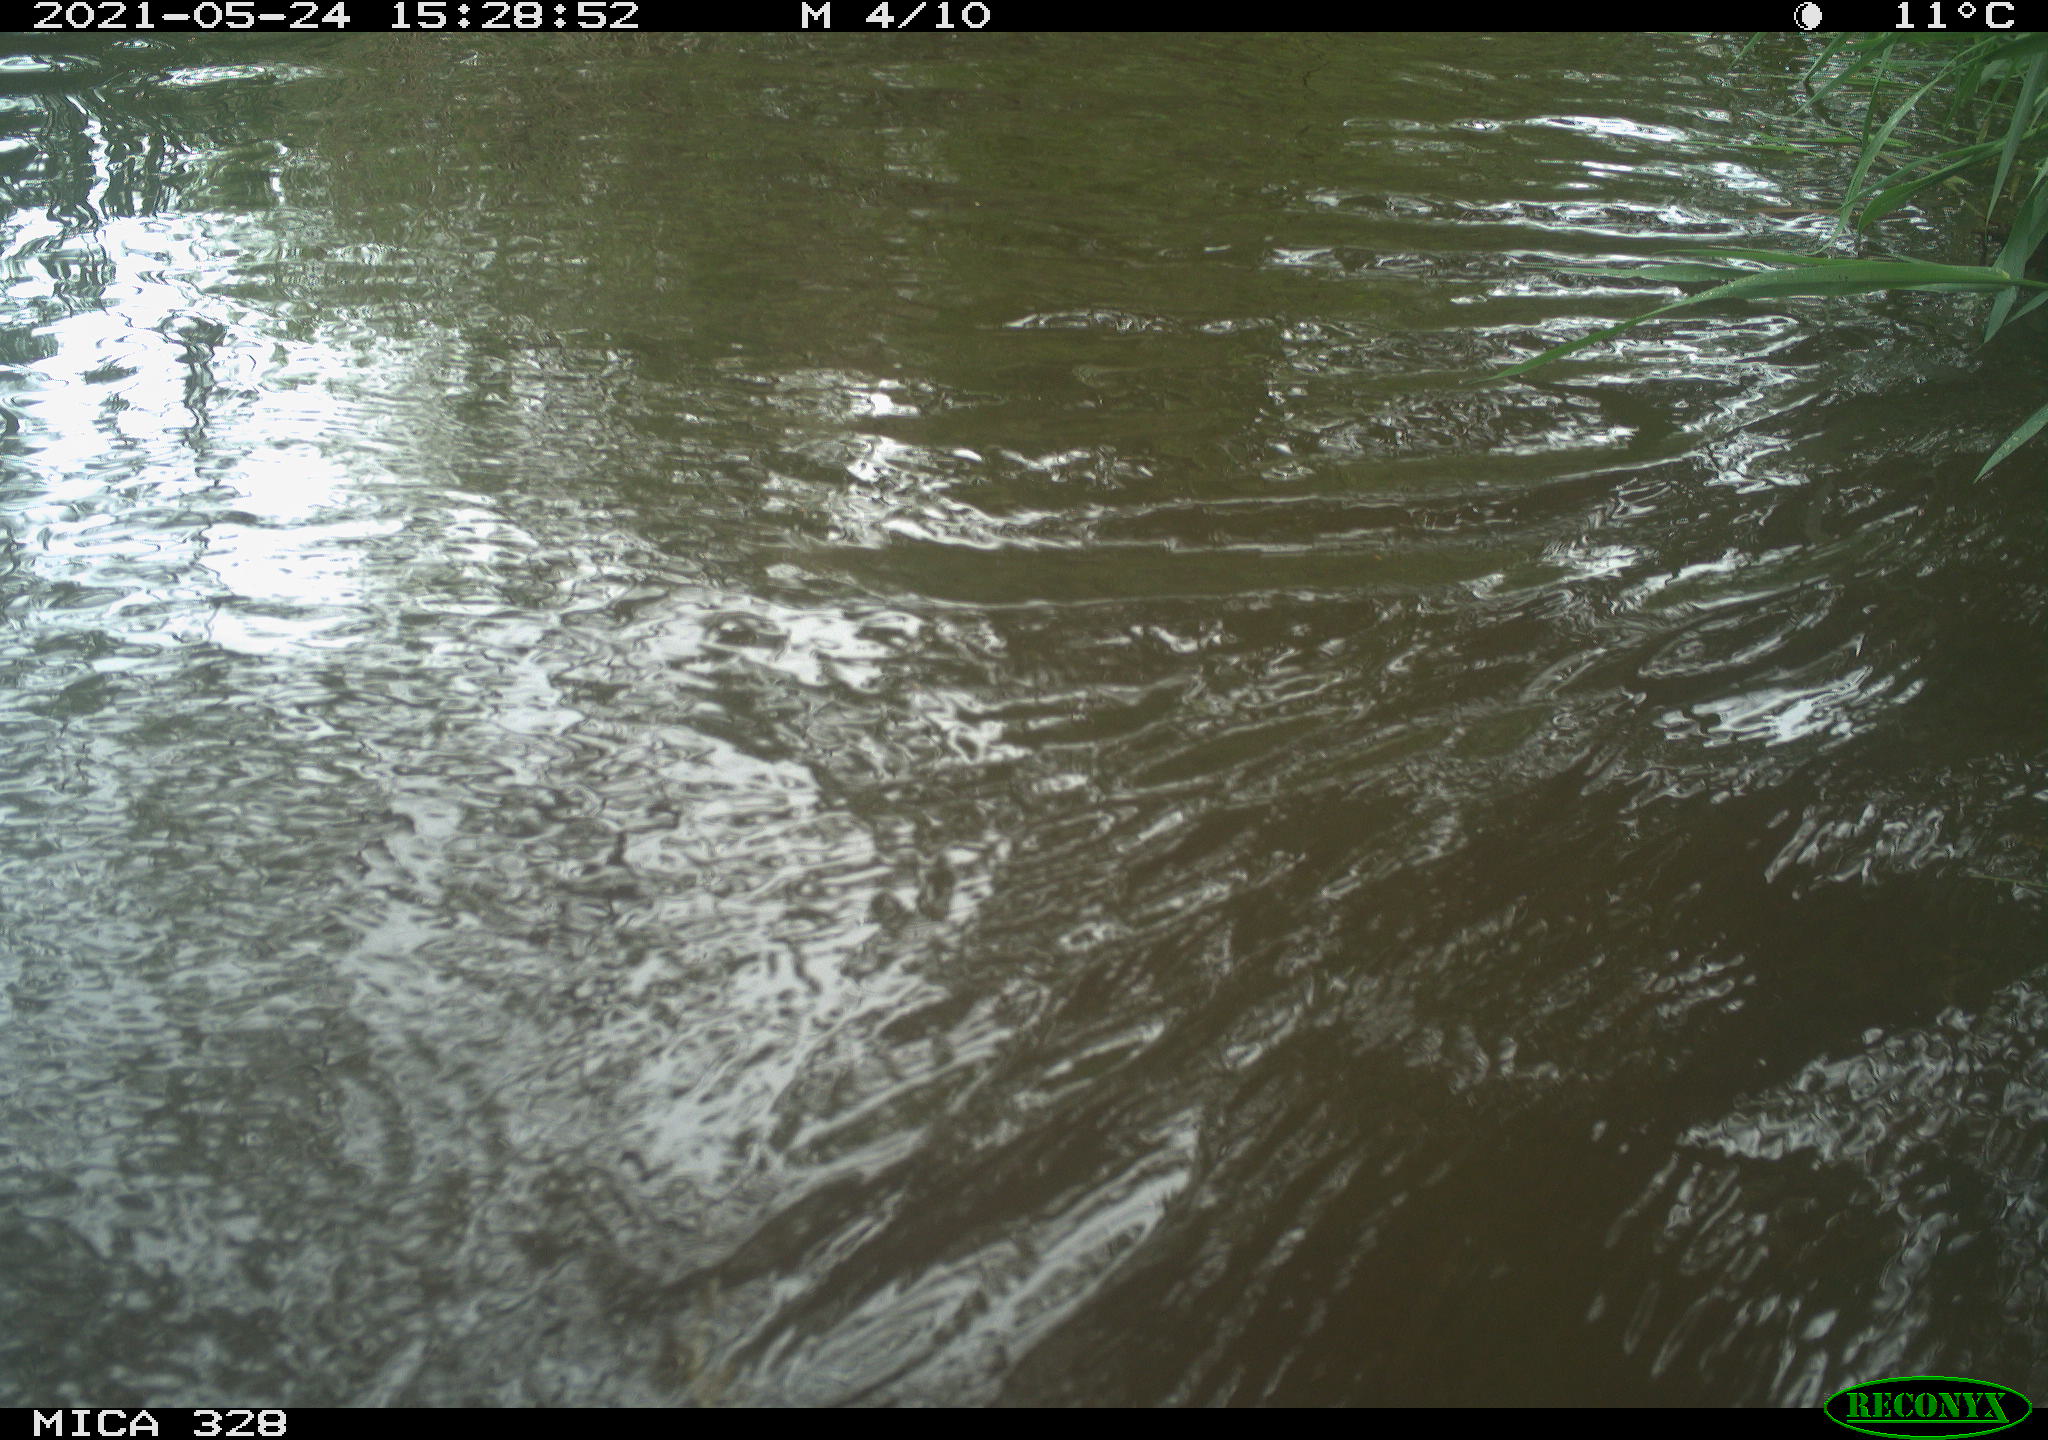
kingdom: Animalia
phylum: Chordata
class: Aves
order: Anseriformes
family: Anatidae
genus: Aix
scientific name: Aix galericulata
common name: Mandarin duck
